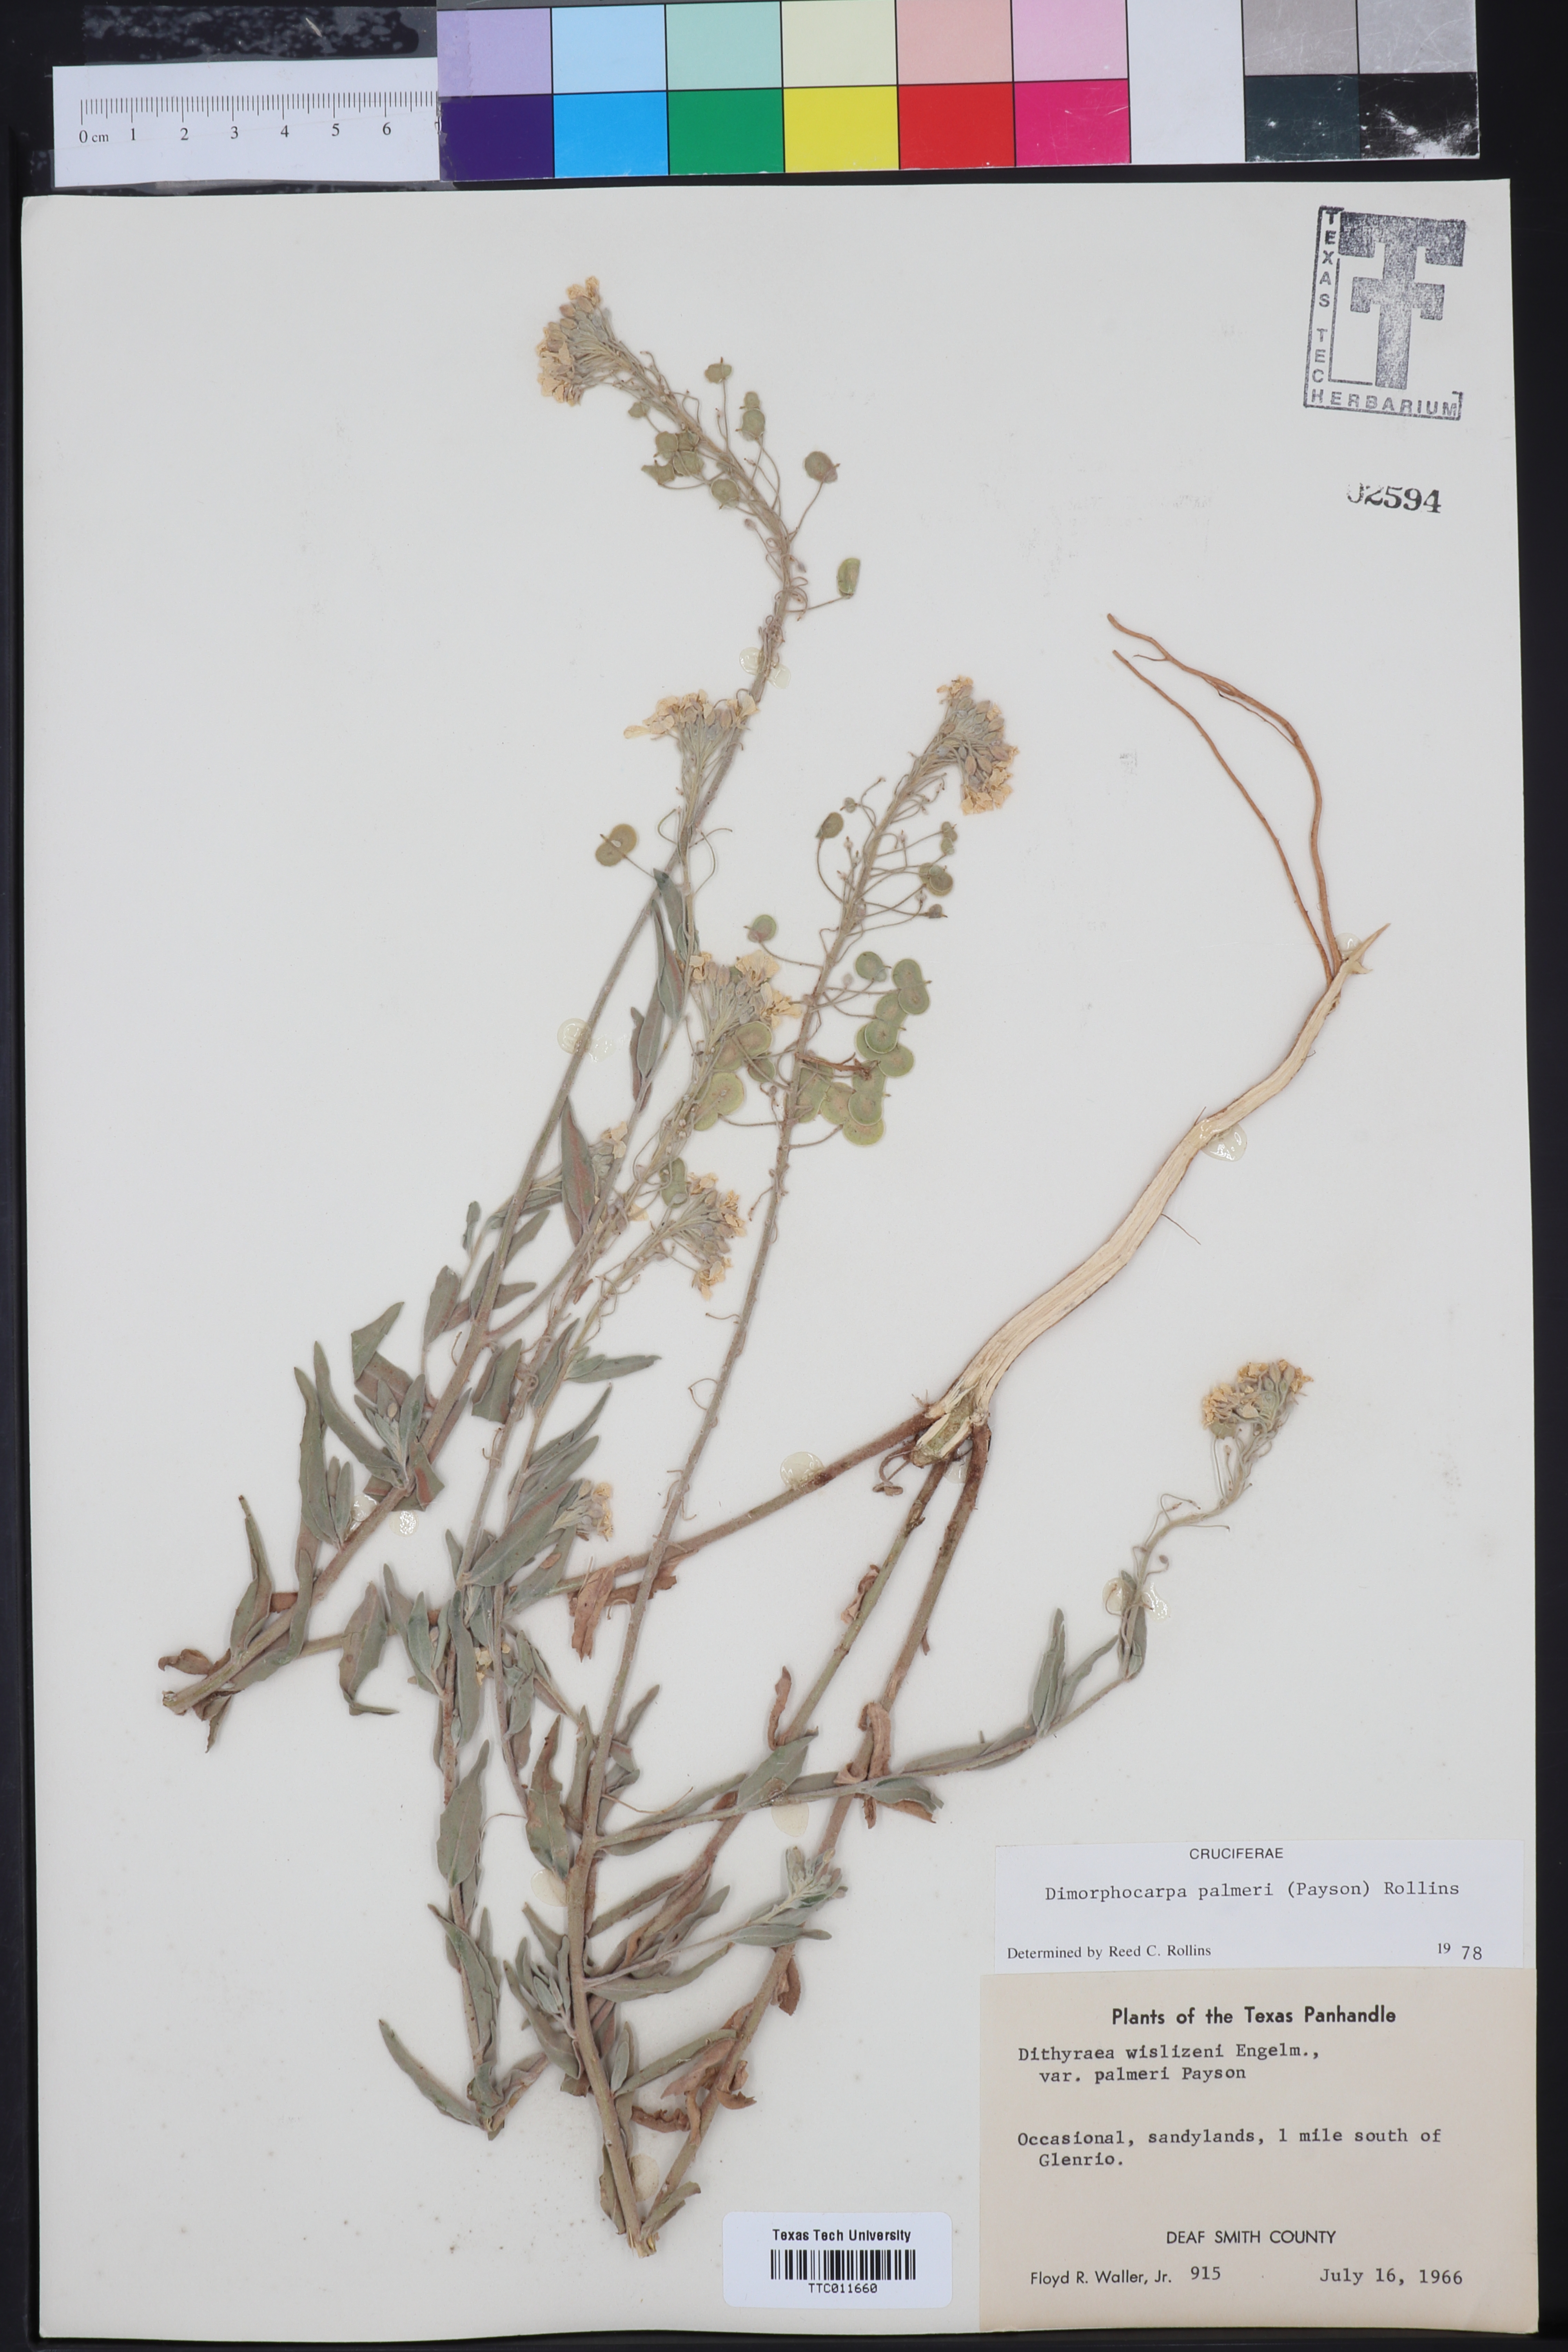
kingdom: Plantae
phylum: Tracheophyta
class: Magnoliopsida
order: Brassicales
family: Brassicaceae
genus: Dimorphocarpa
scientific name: Dimorphocarpa candicans
